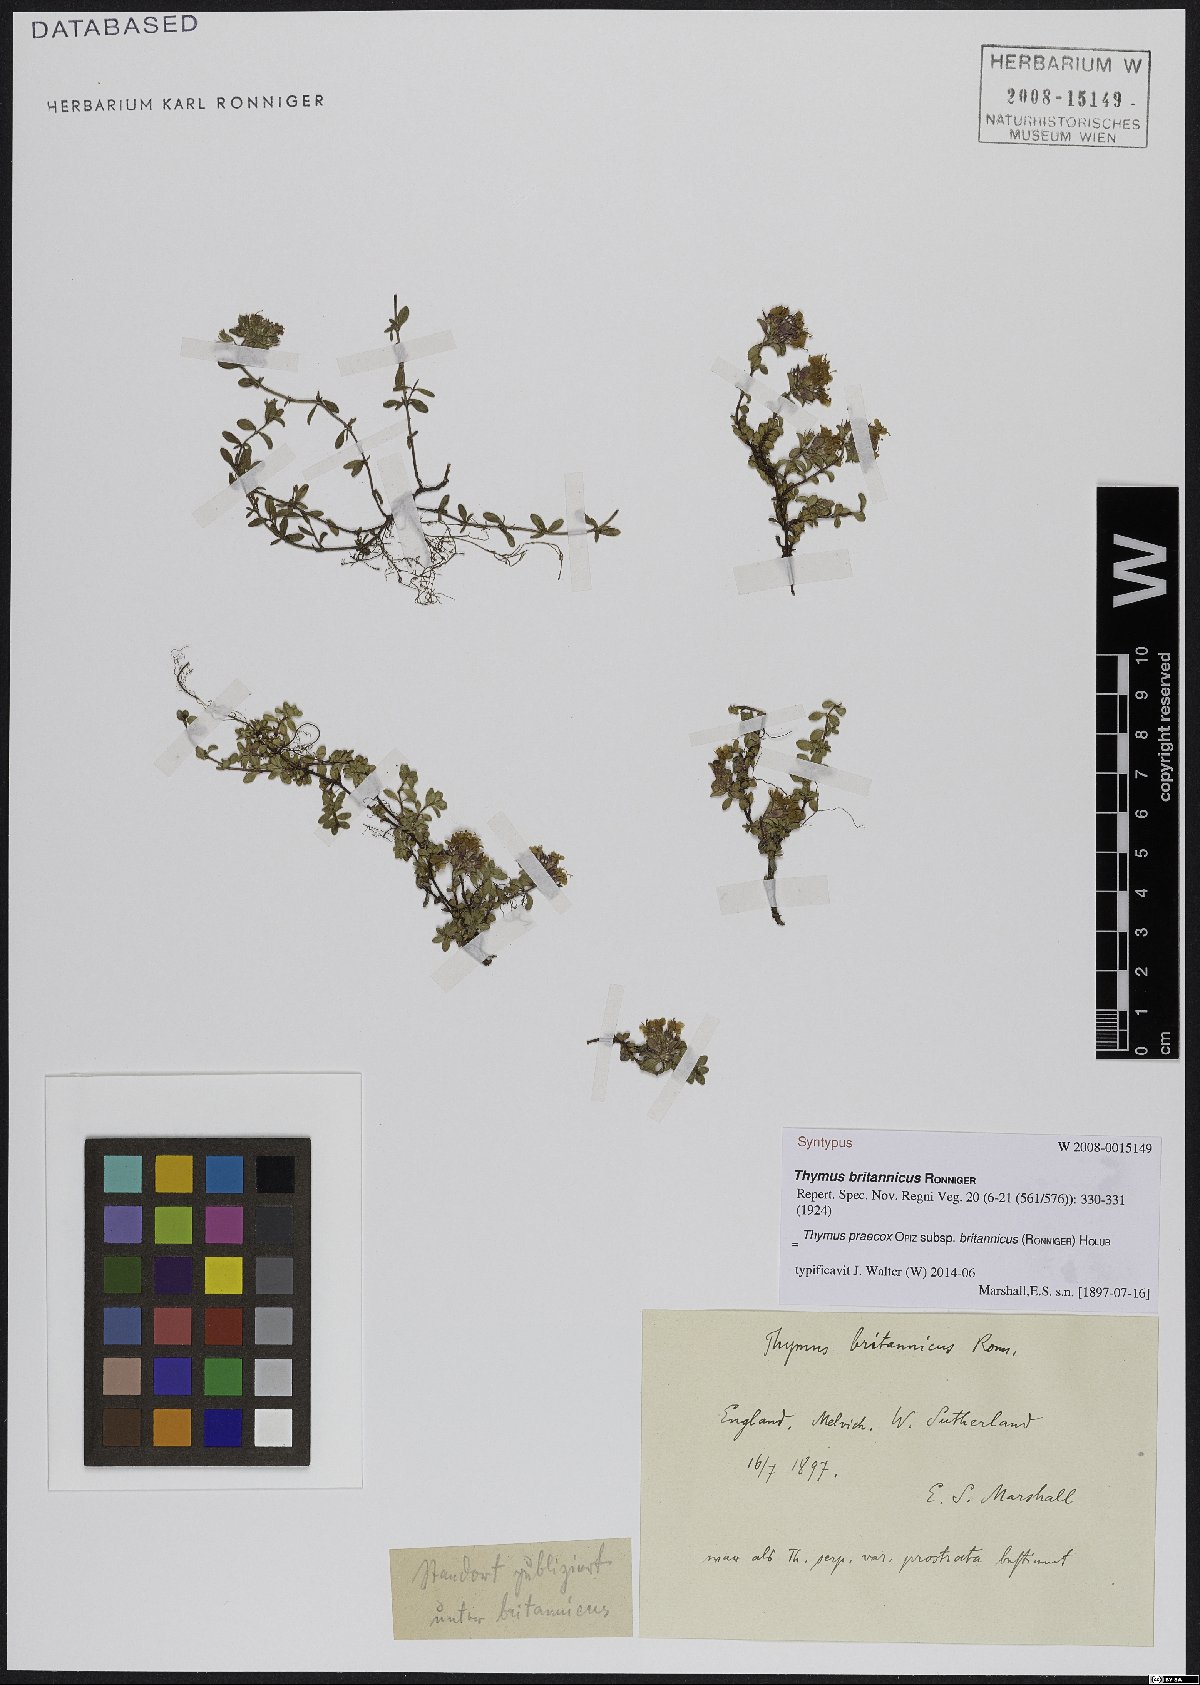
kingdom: Plantae
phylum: Tracheophyta
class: Magnoliopsida
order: Lamiales
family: Lamiaceae
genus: Thymus
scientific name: Thymus praecox
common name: Wild thyme
